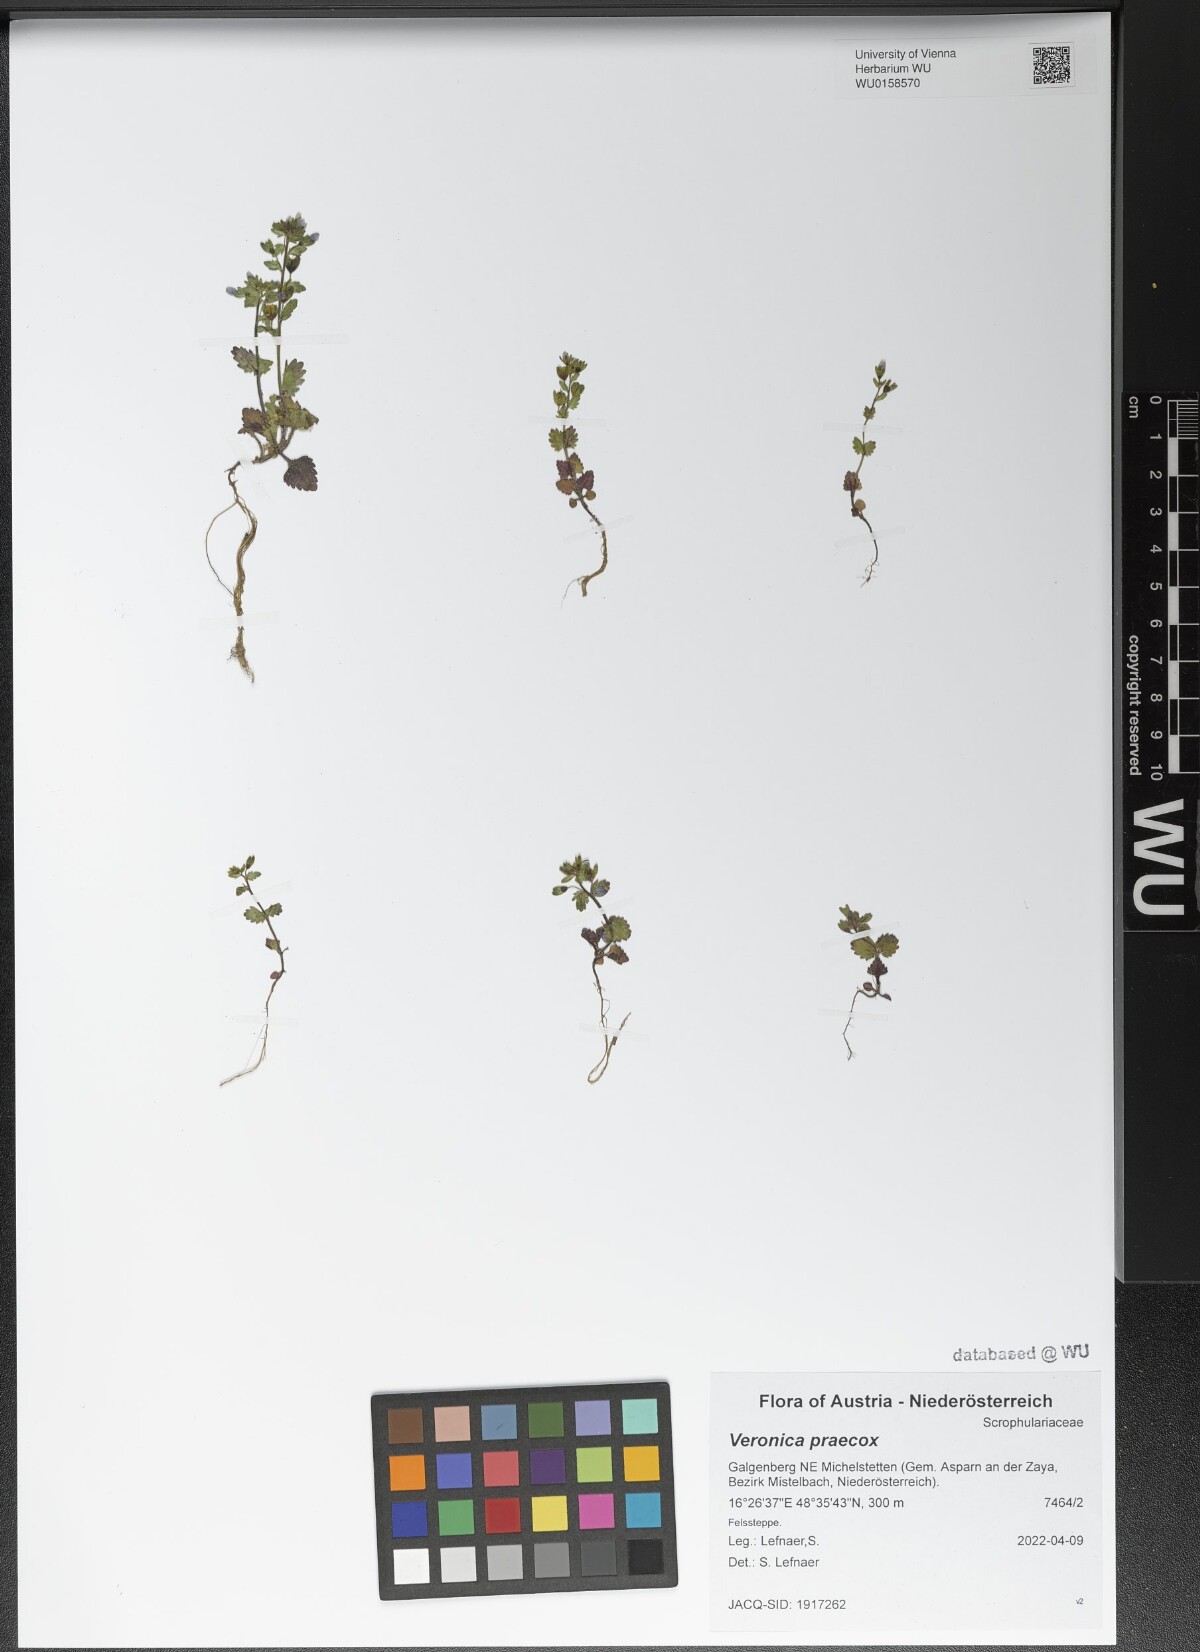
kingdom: Plantae
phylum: Tracheophyta
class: Magnoliopsida
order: Lamiales
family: Plantaginaceae
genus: Veronica
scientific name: Veronica praecox
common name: Breckland speedwell
